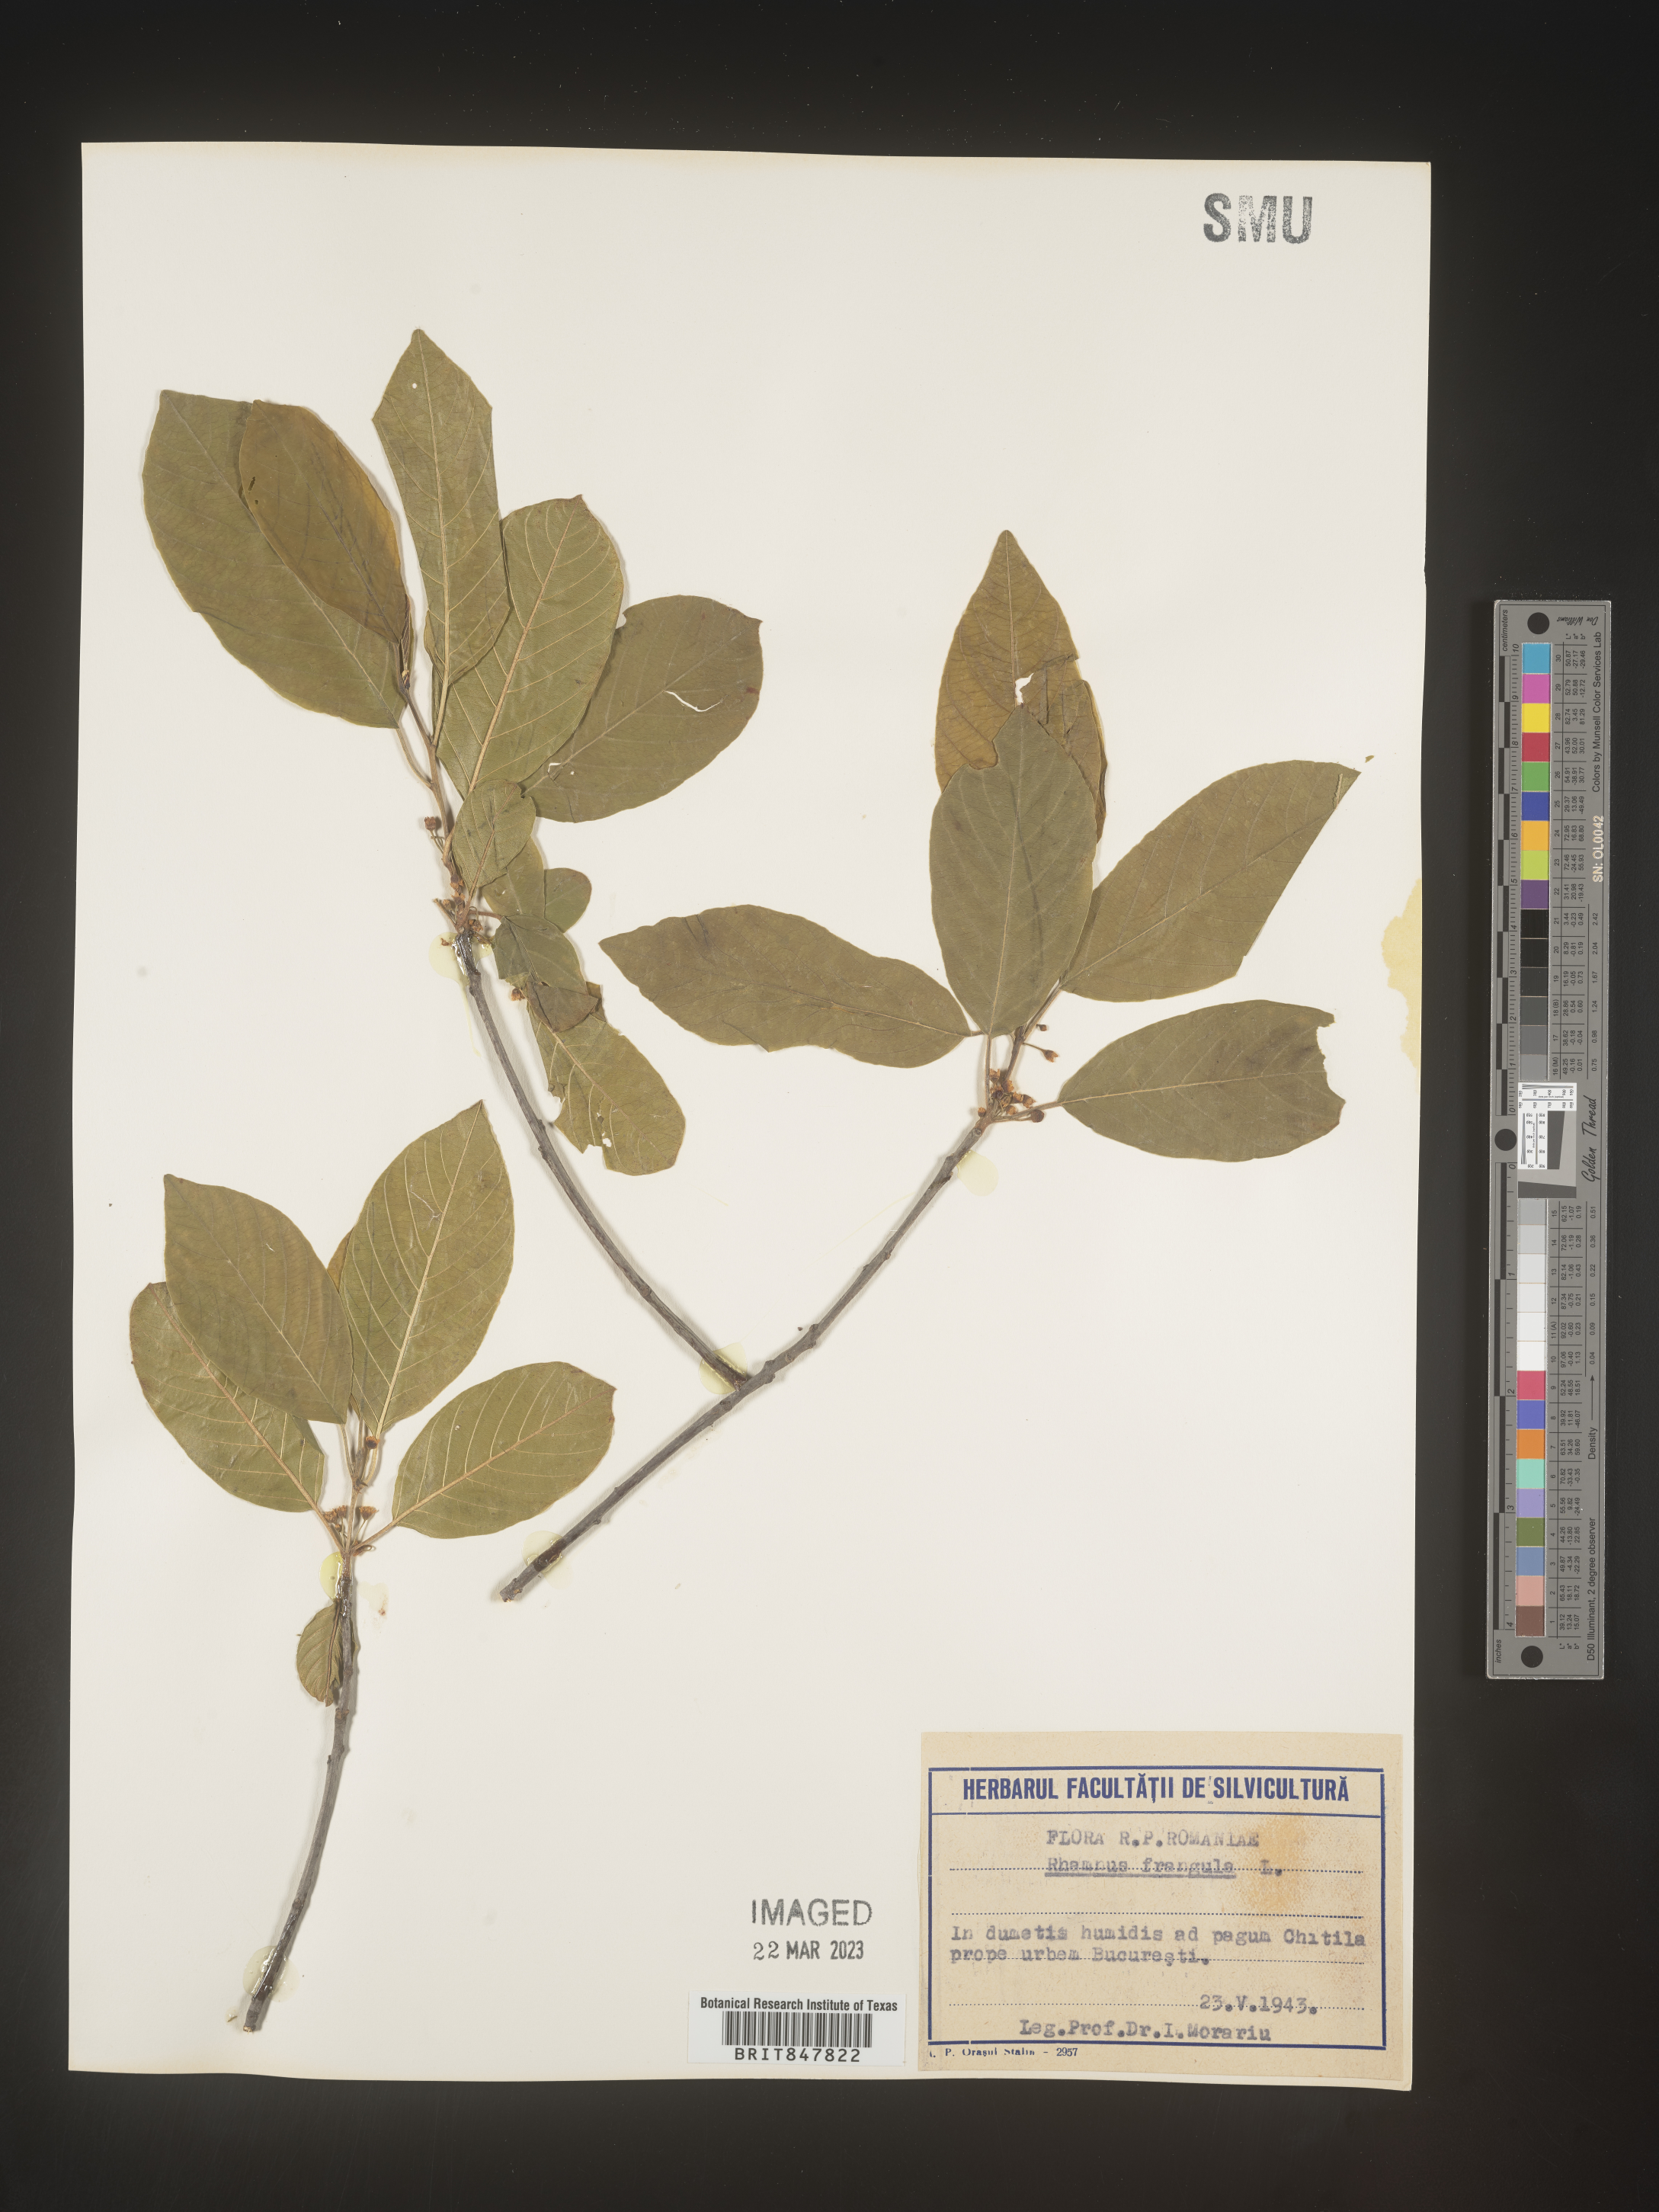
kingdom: Plantae
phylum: Tracheophyta
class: Magnoliopsida
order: Rosales
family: Rhamnaceae
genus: Rhamnus
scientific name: Rhamnus
